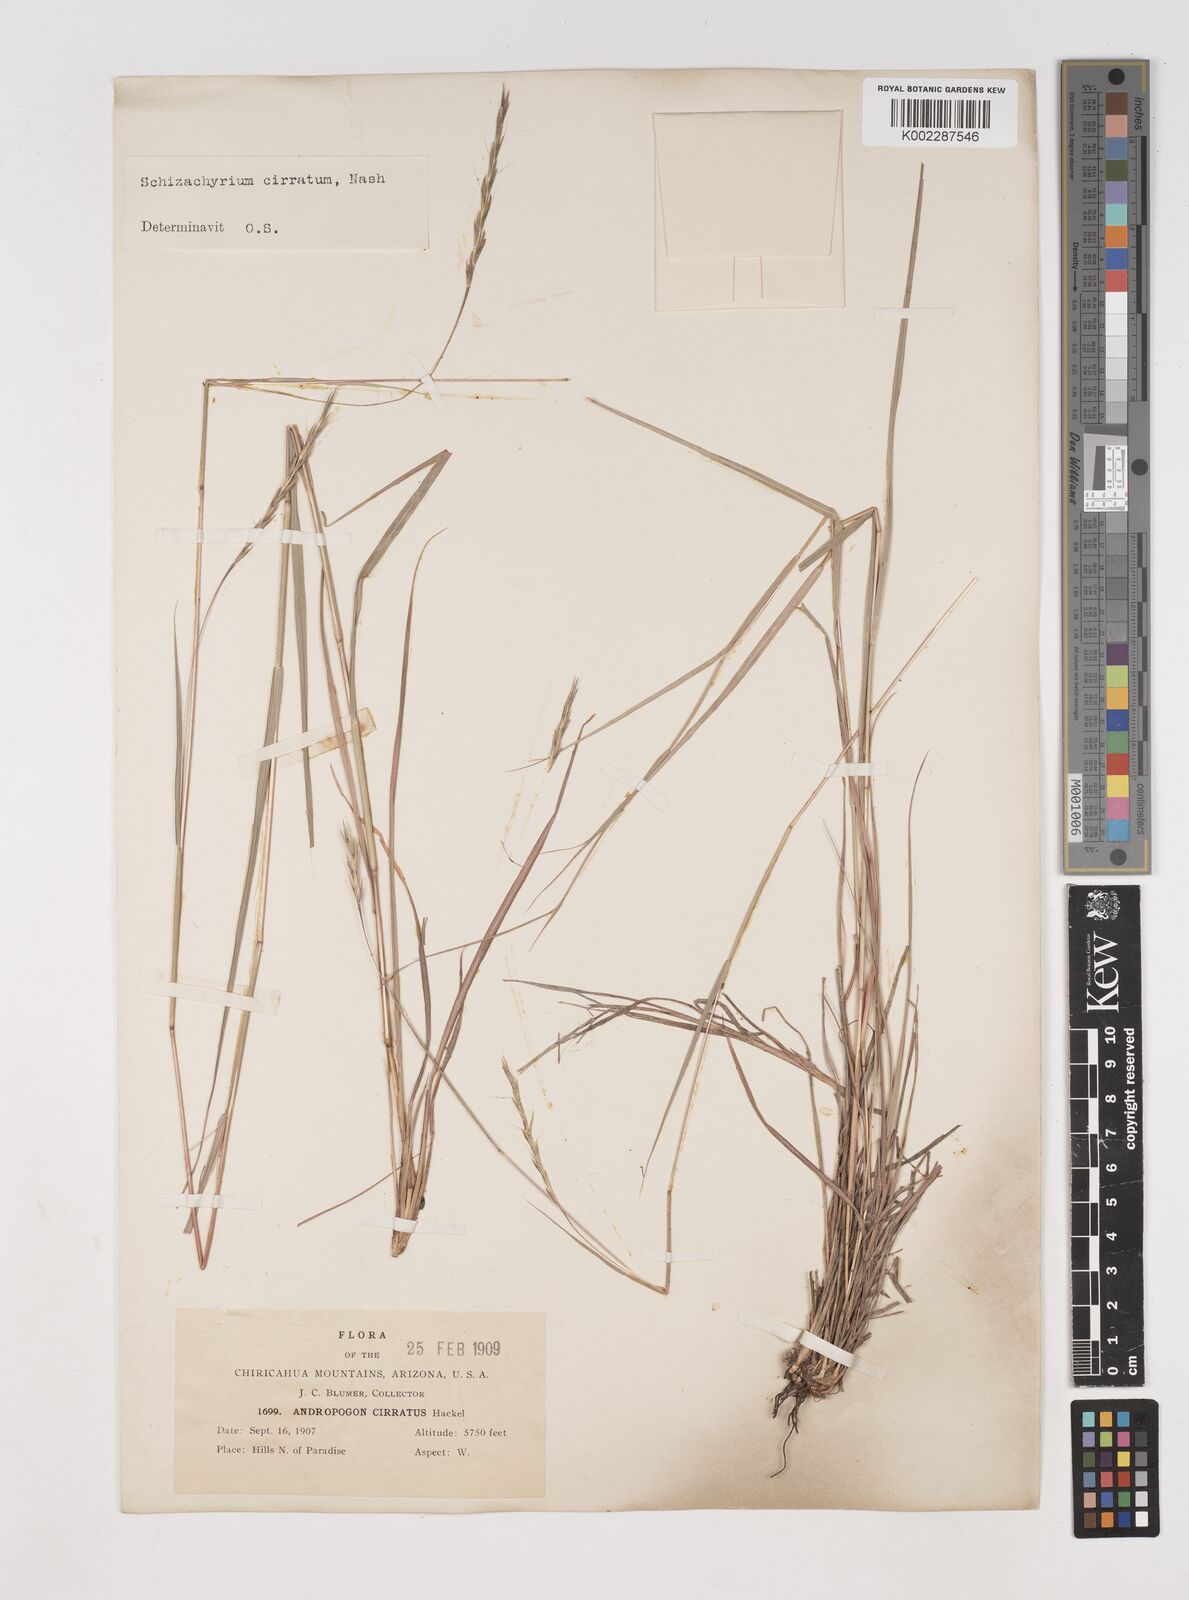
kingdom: Plantae
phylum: Tracheophyta
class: Liliopsida
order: Poales
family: Poaceae
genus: Andropogon
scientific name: Andropogon cirratus
